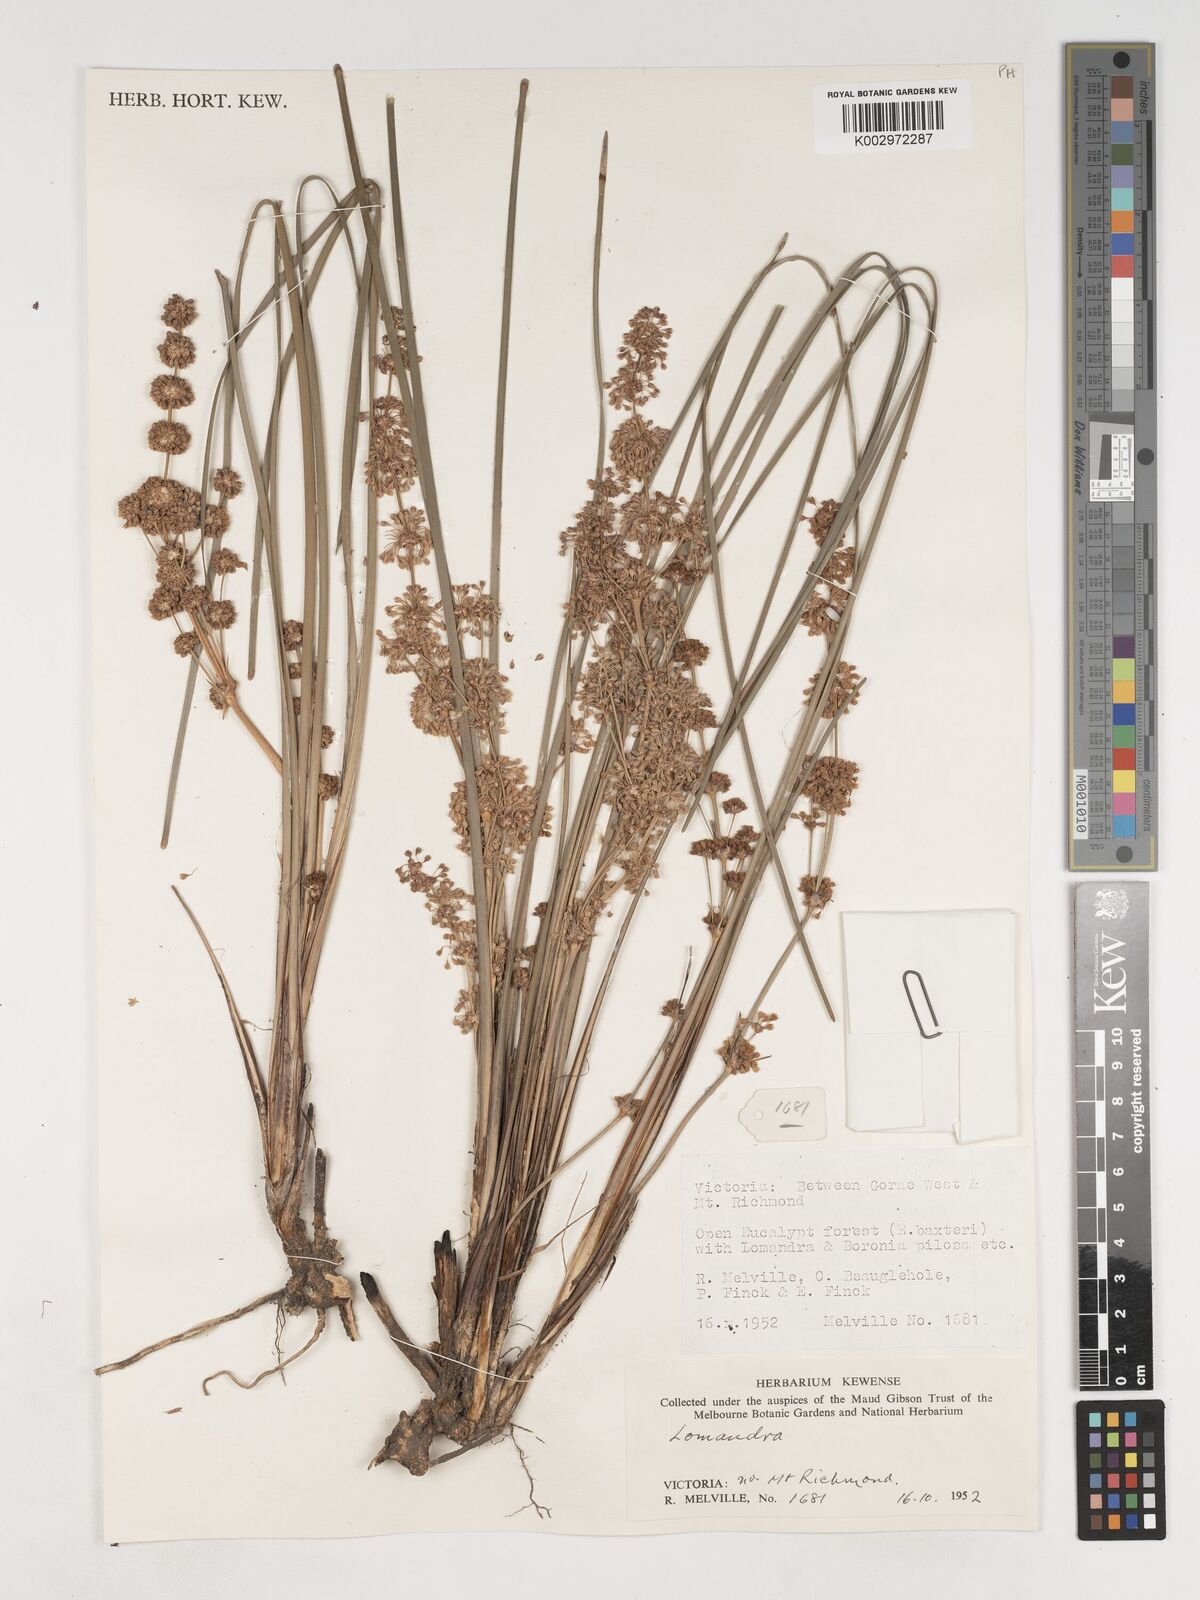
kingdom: Plantae
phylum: Tracheophyta
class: Liliopsida
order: Asparagales
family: Asparagaceae
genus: Lomandra
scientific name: Lomandra
